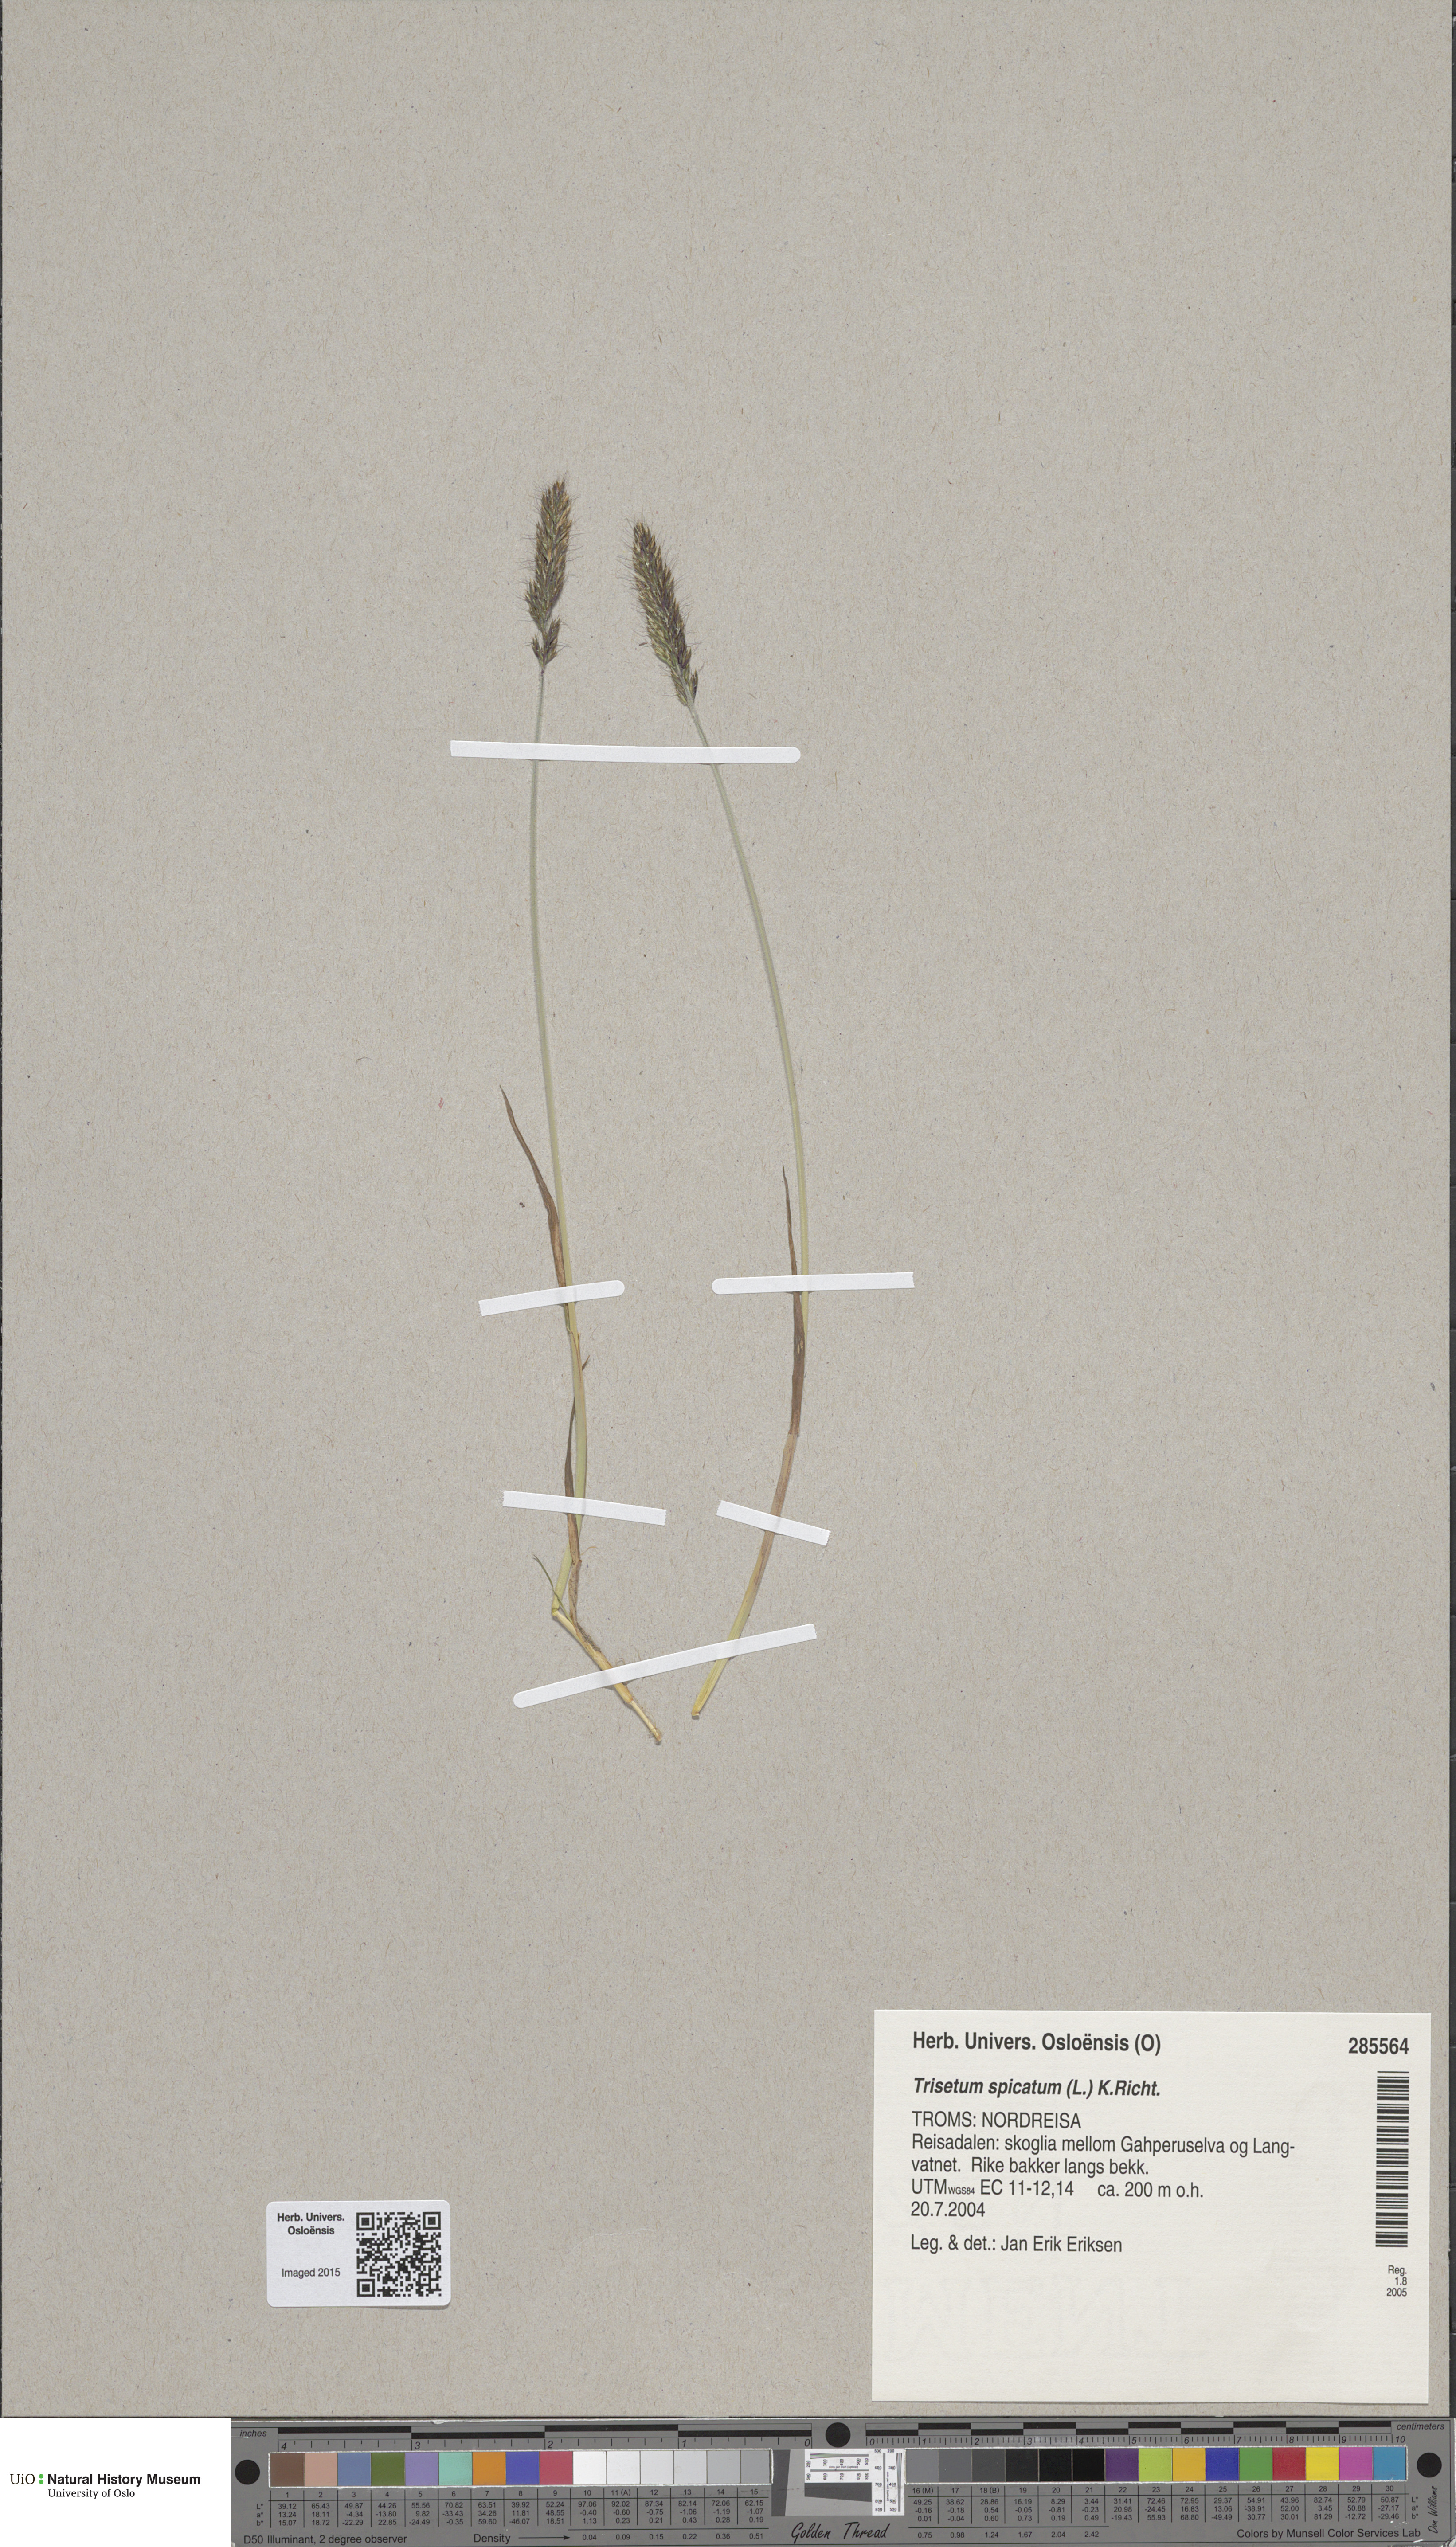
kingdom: Plantae
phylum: Tracheophyta
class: Liliopsida
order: Poales
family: Poaceae
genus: Koeleria
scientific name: Koeleria spicata
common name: Mountain trisetum
